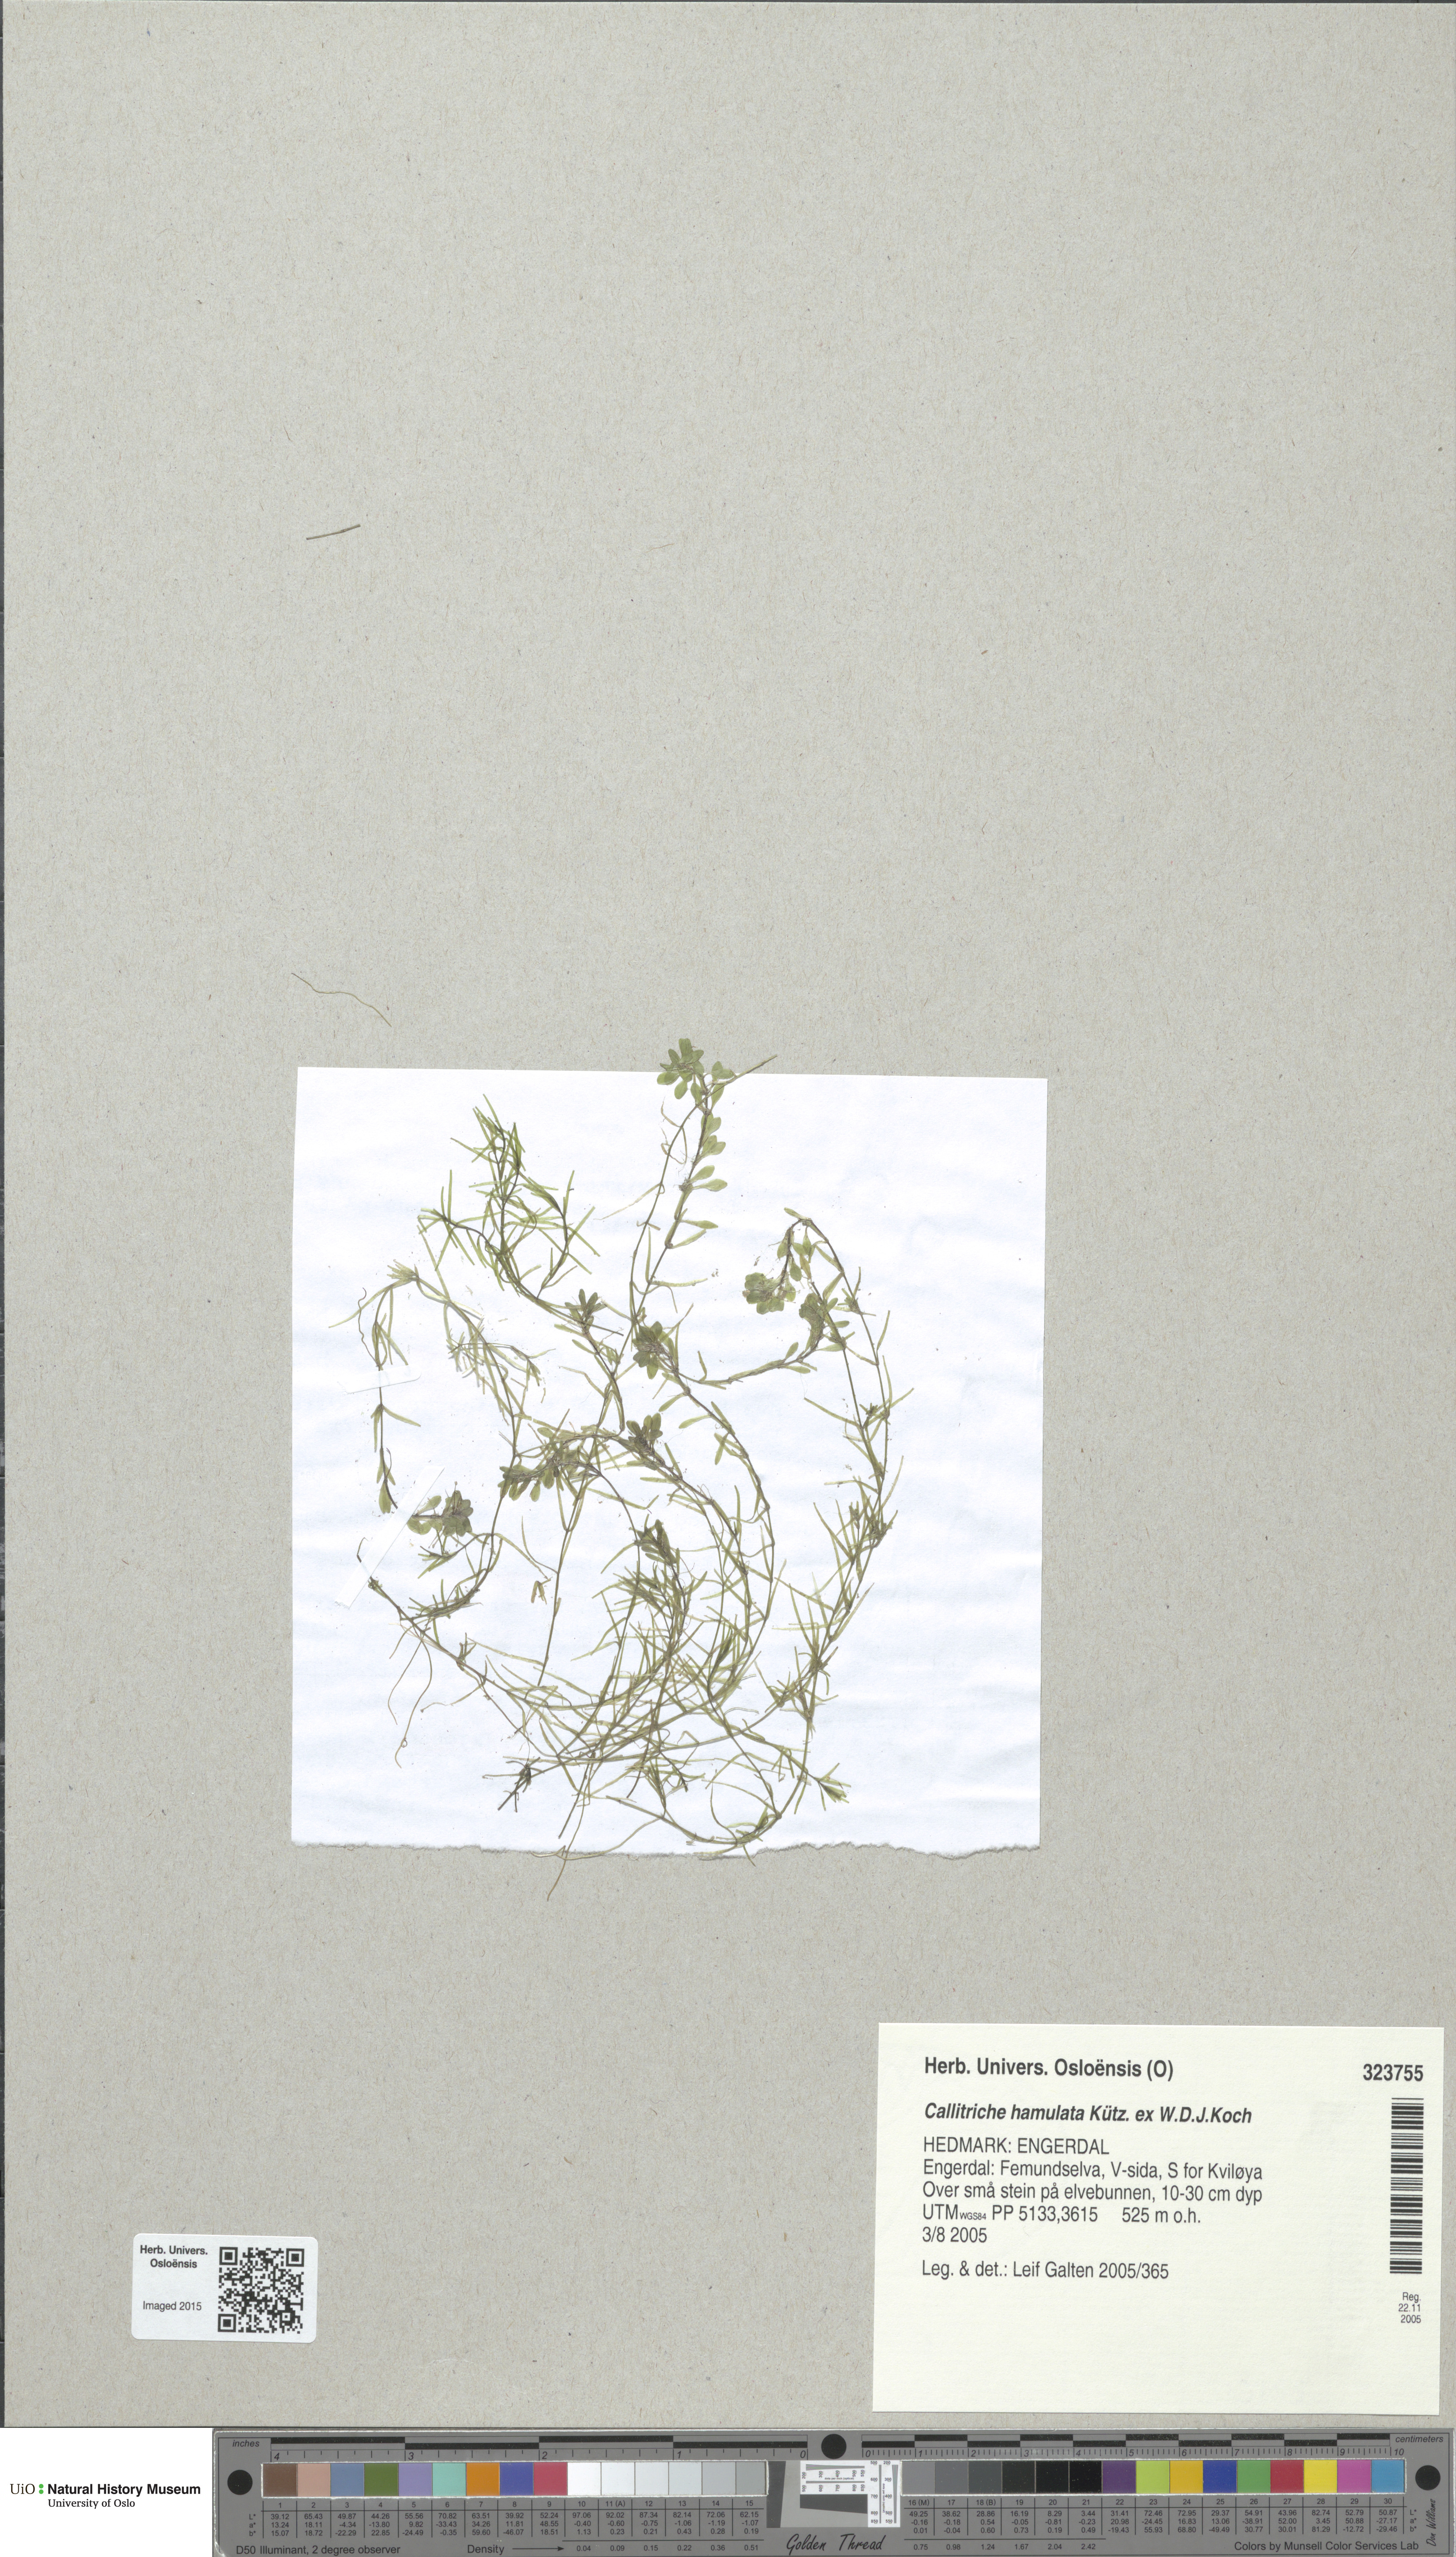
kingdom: Plantae
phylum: Tracheophyta
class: Magnoliopsida
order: Lamiales
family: Plantaginaceae
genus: Callitriche
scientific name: Callitriche hamulata
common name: Intermediate water-starwort
